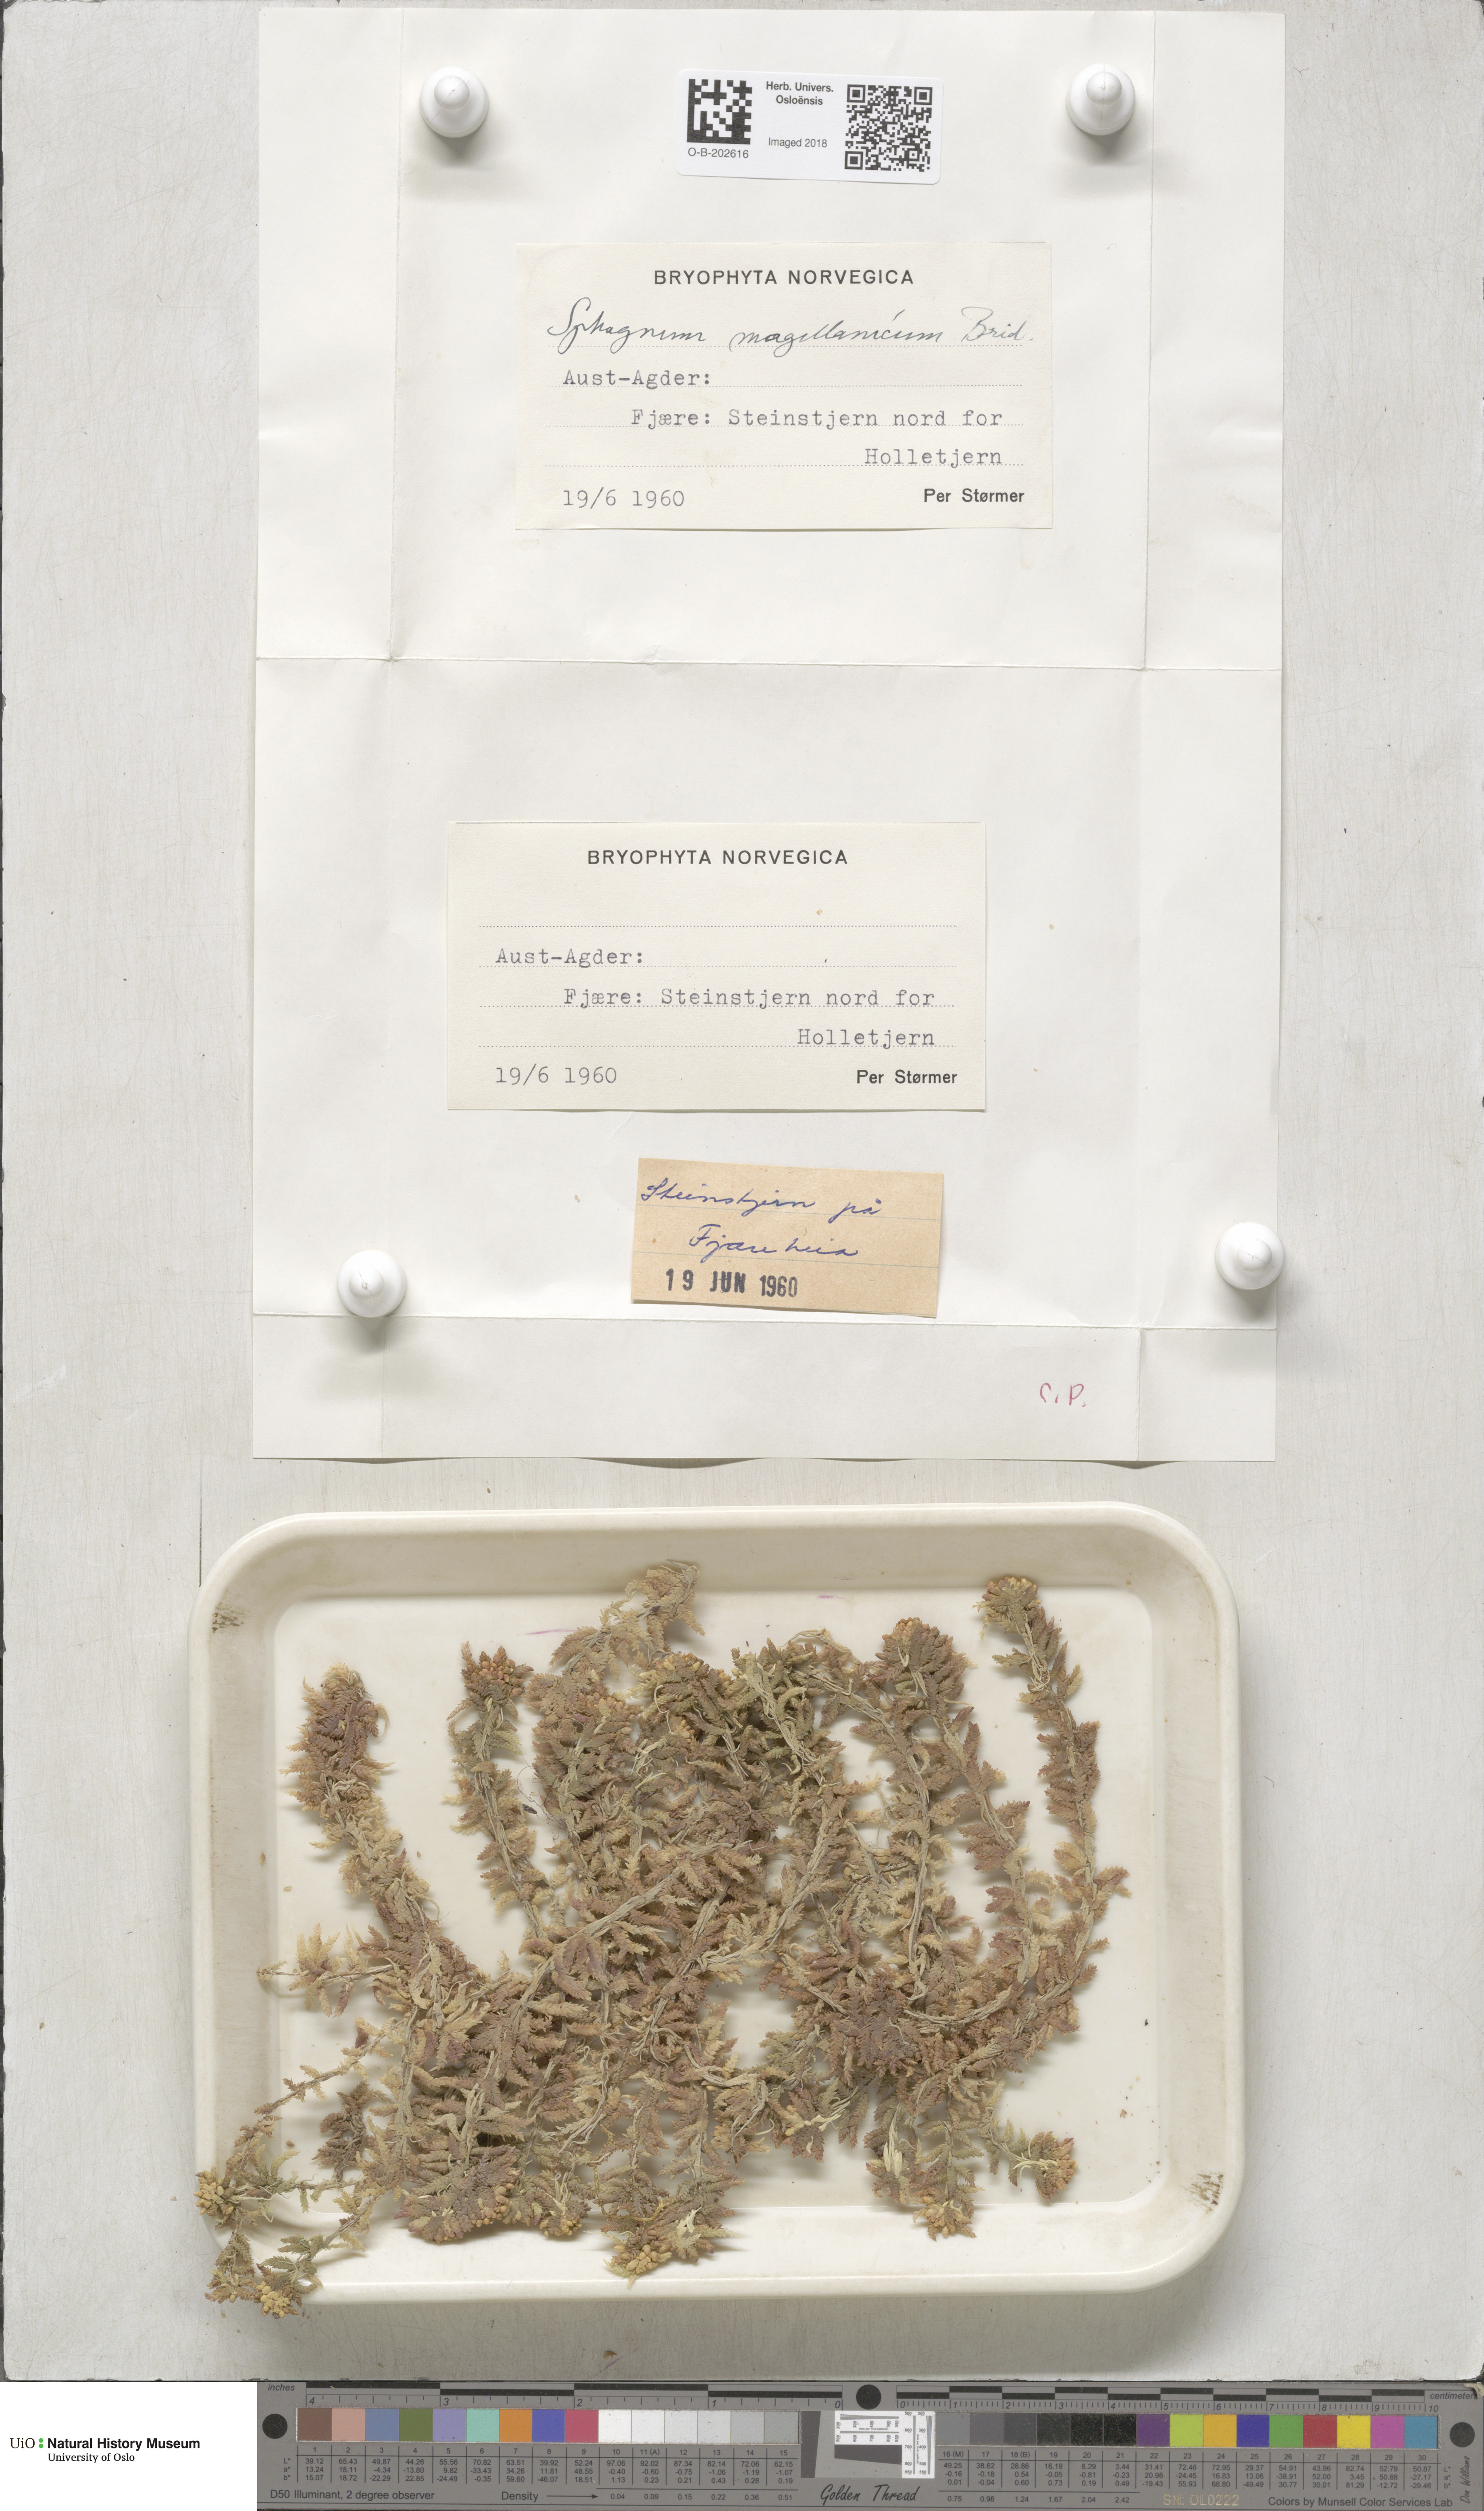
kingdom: Plantae
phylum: Bryophyta
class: Sphagnopsida
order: Sphagnales
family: Sphagnaceae
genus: Sphagnum
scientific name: Sphagnum magellanicum
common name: Magellan's peat moss
